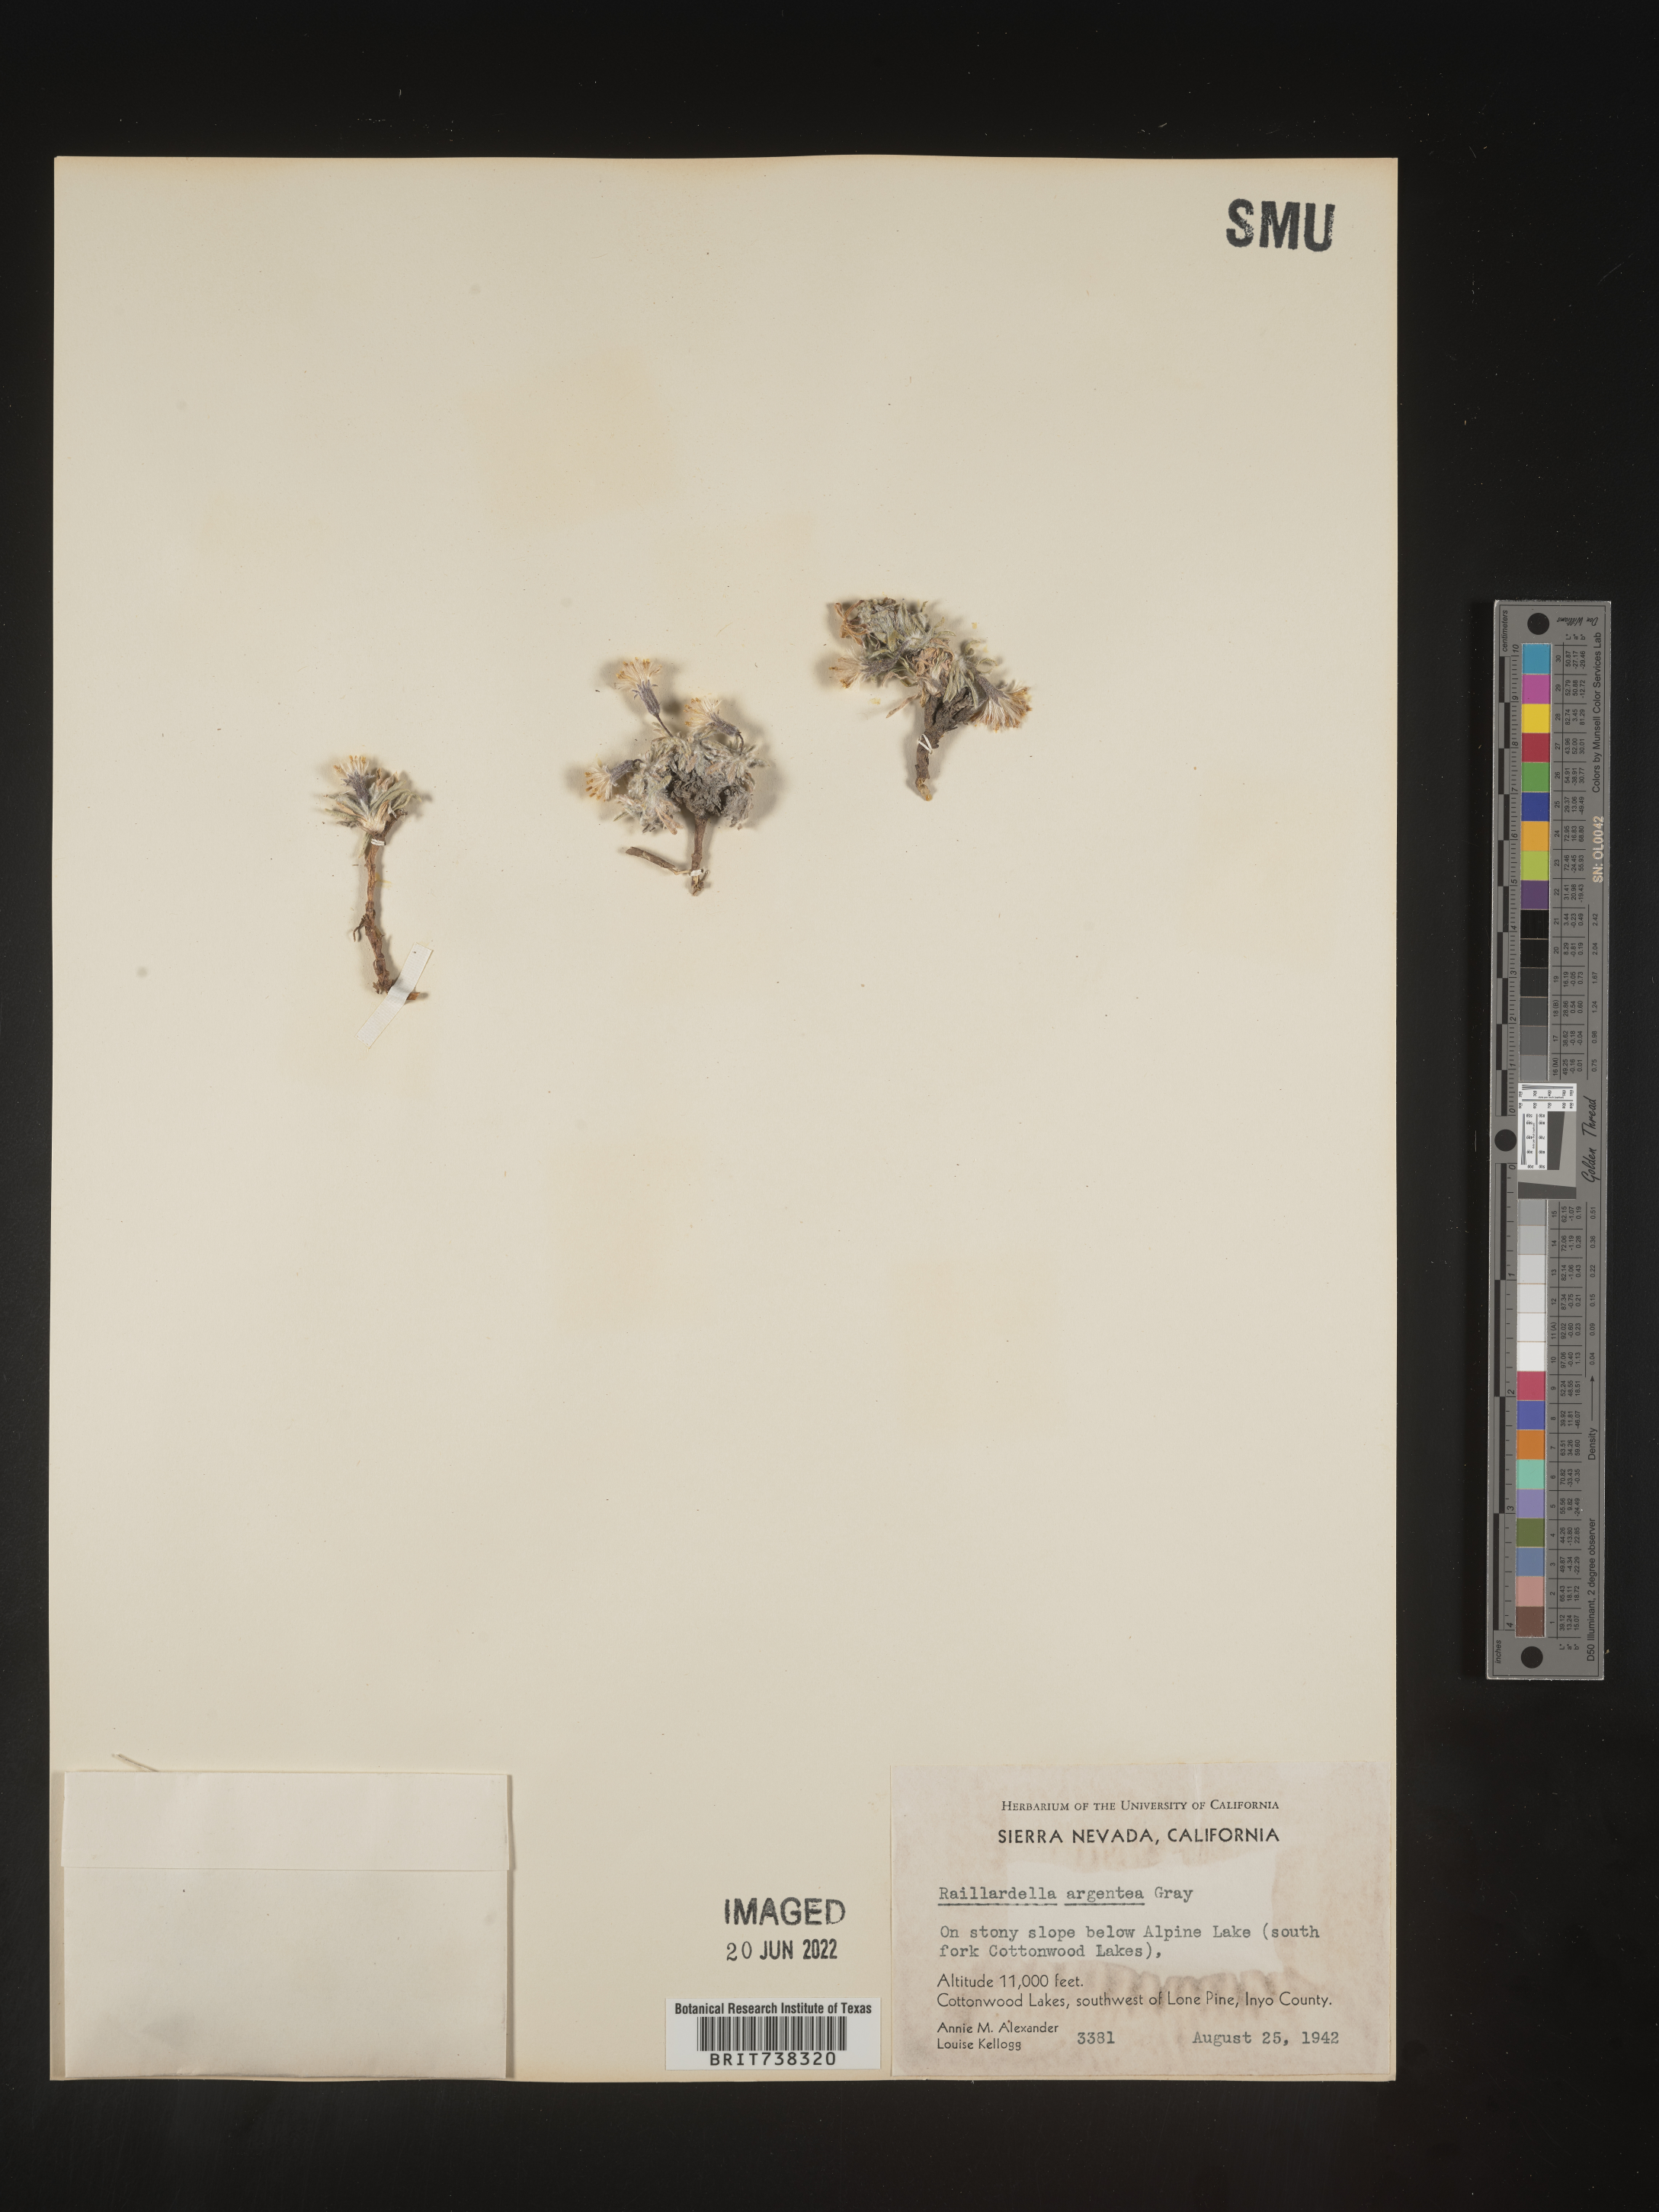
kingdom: Plantae
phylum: Tracheophyta
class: Magnoliopsida
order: Asterales
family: Asteraceae
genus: Raillardella
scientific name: Raillardella
